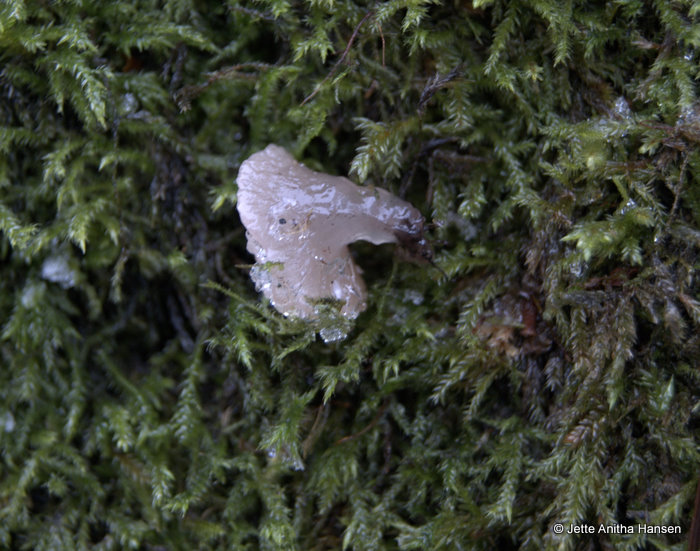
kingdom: Fungi
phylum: Ascomycota
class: Leotiomycetes
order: Helotiales
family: Gelatinodiscaceae
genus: Neobulgaria
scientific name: Neobulgaria pura
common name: bleg bævreskive
